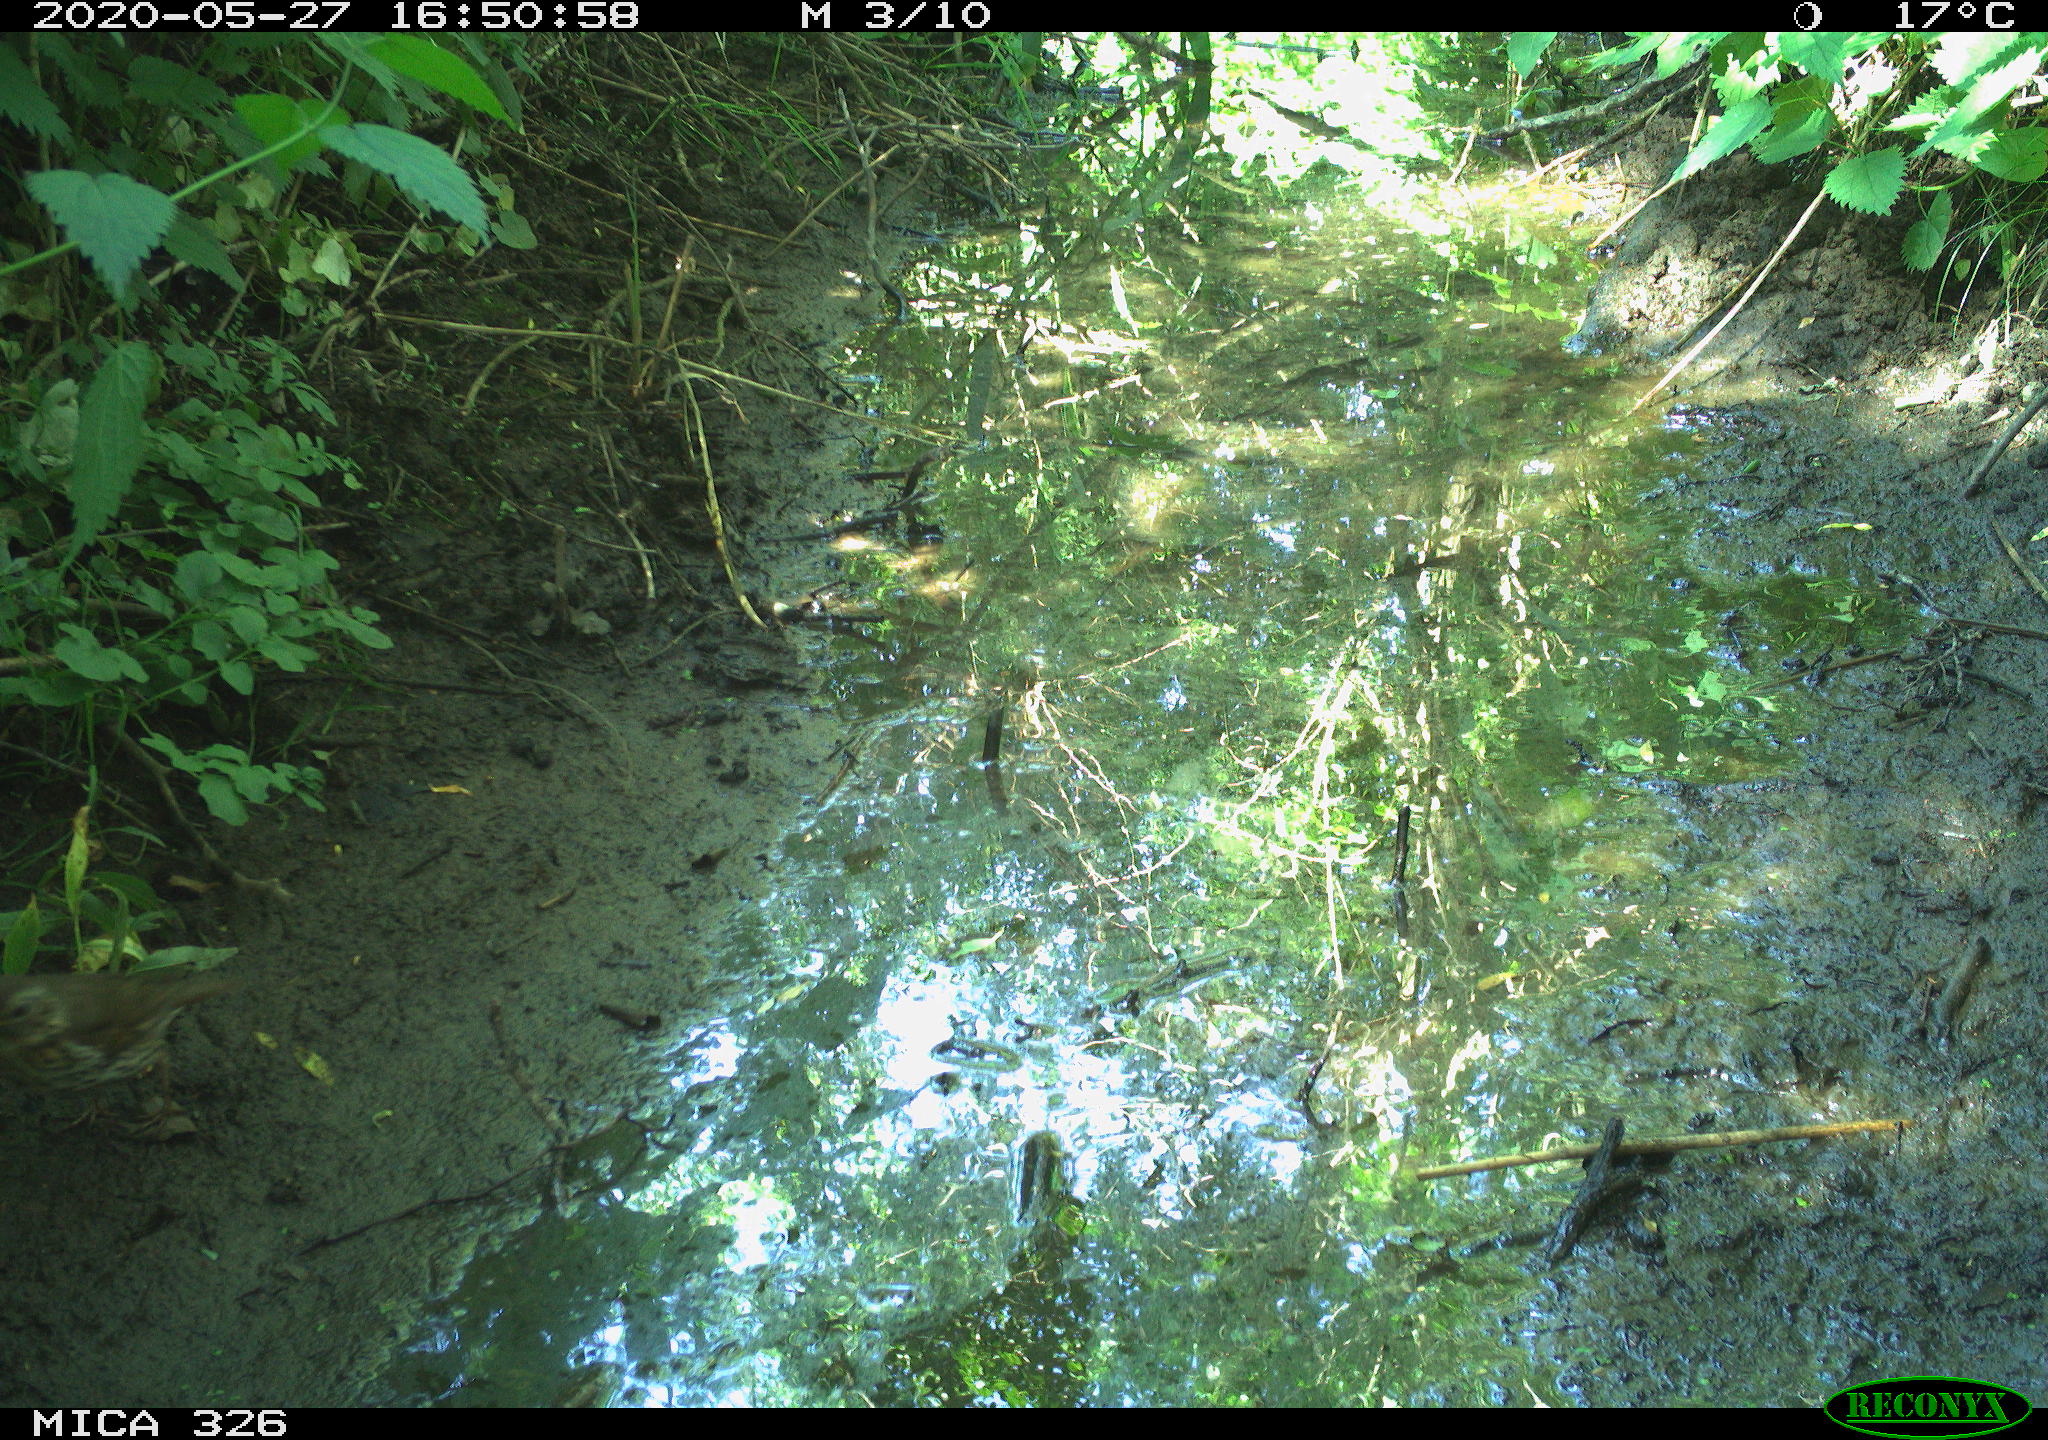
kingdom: Animalia
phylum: Chordata
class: Aves
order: Passeriformes
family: Turdidae
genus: Turdus
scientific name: Turdus philomelos
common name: Song thrush
